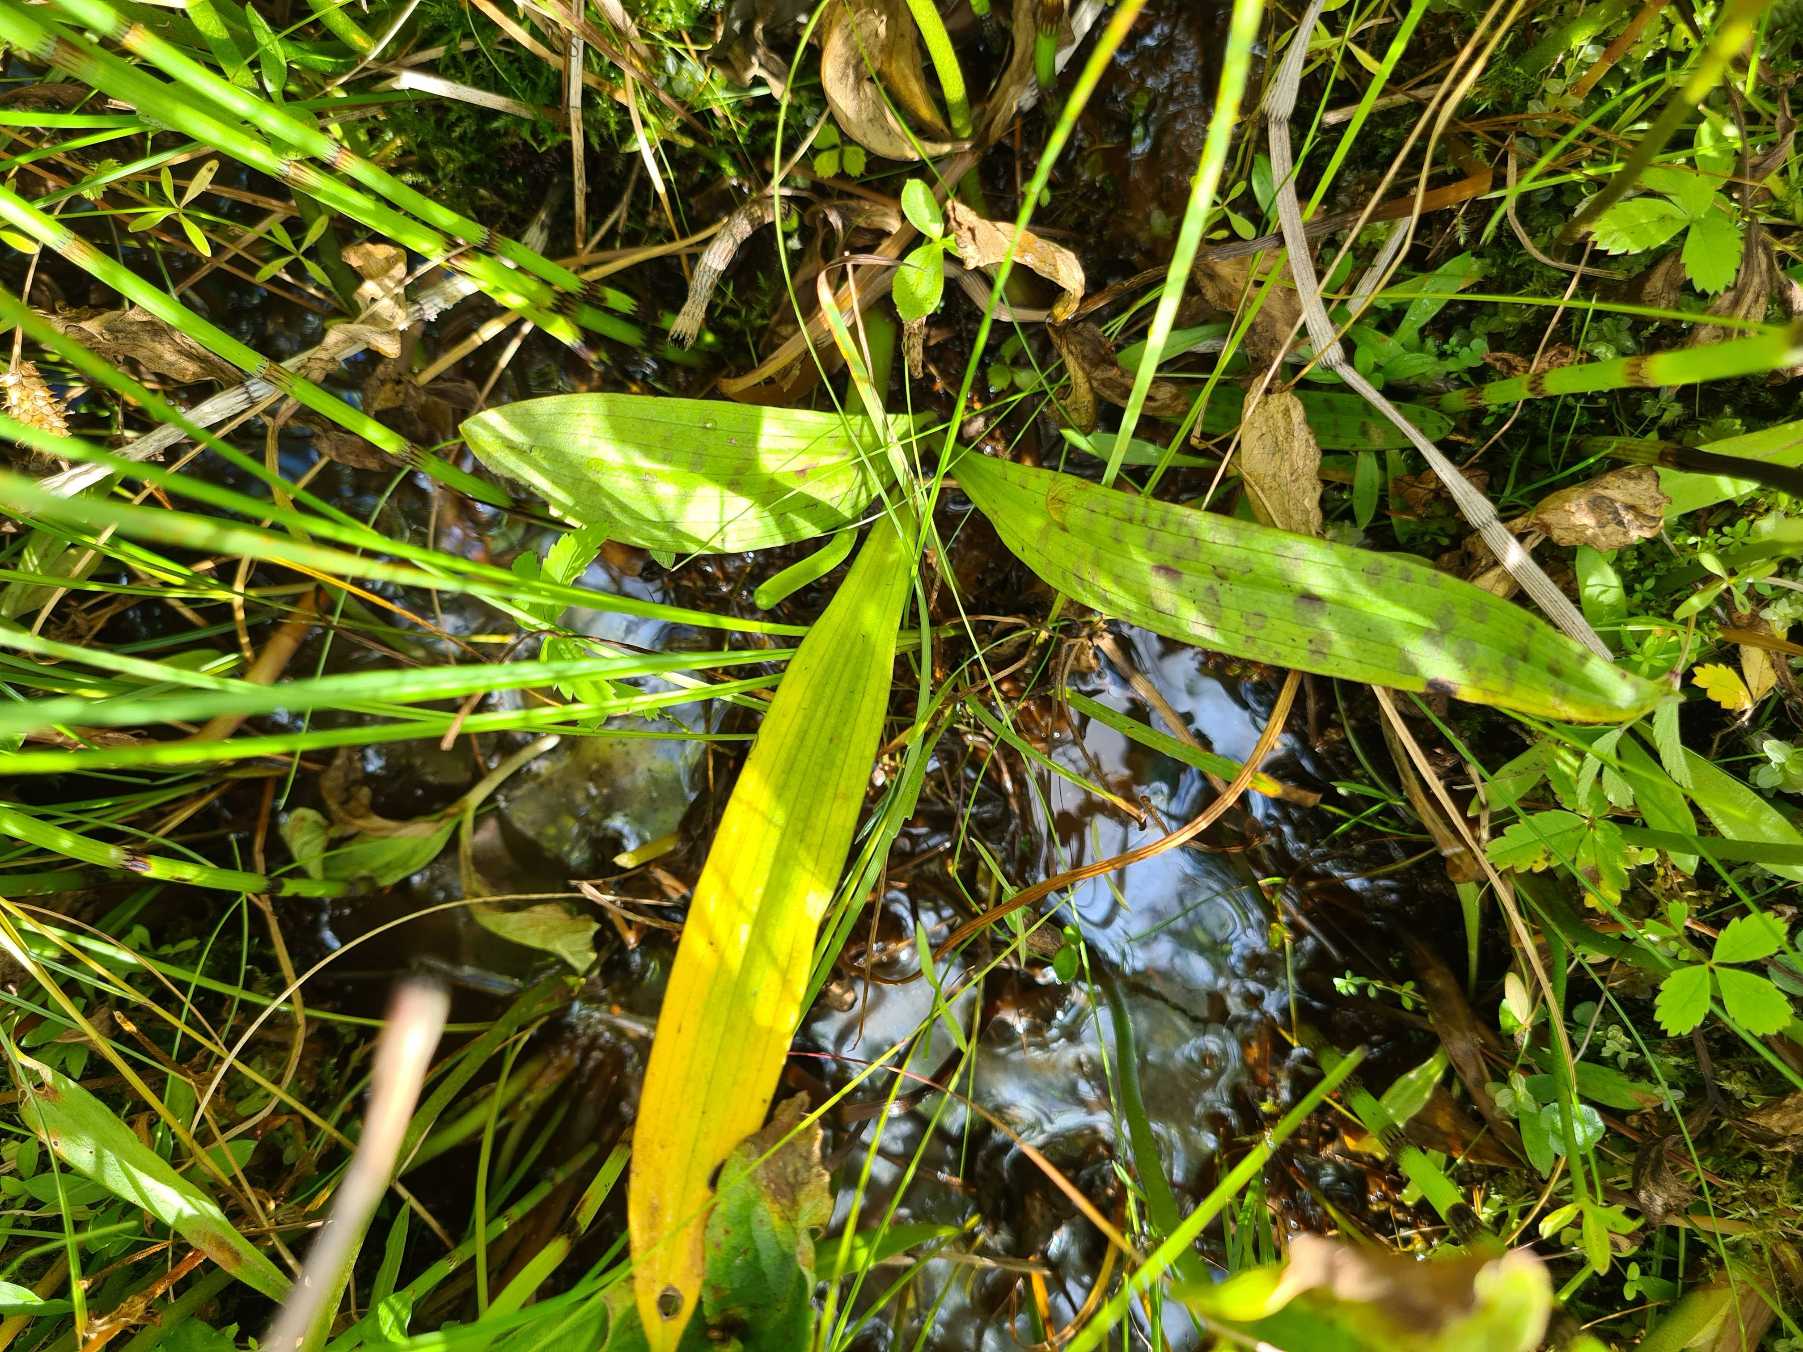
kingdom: Plantae
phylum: Tracheophyta
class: Liliopsida
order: Asparagales
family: Orchidaceae
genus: Dactylorhiza
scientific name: Dactylorhiza majalis
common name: Maj-gøgeurt
